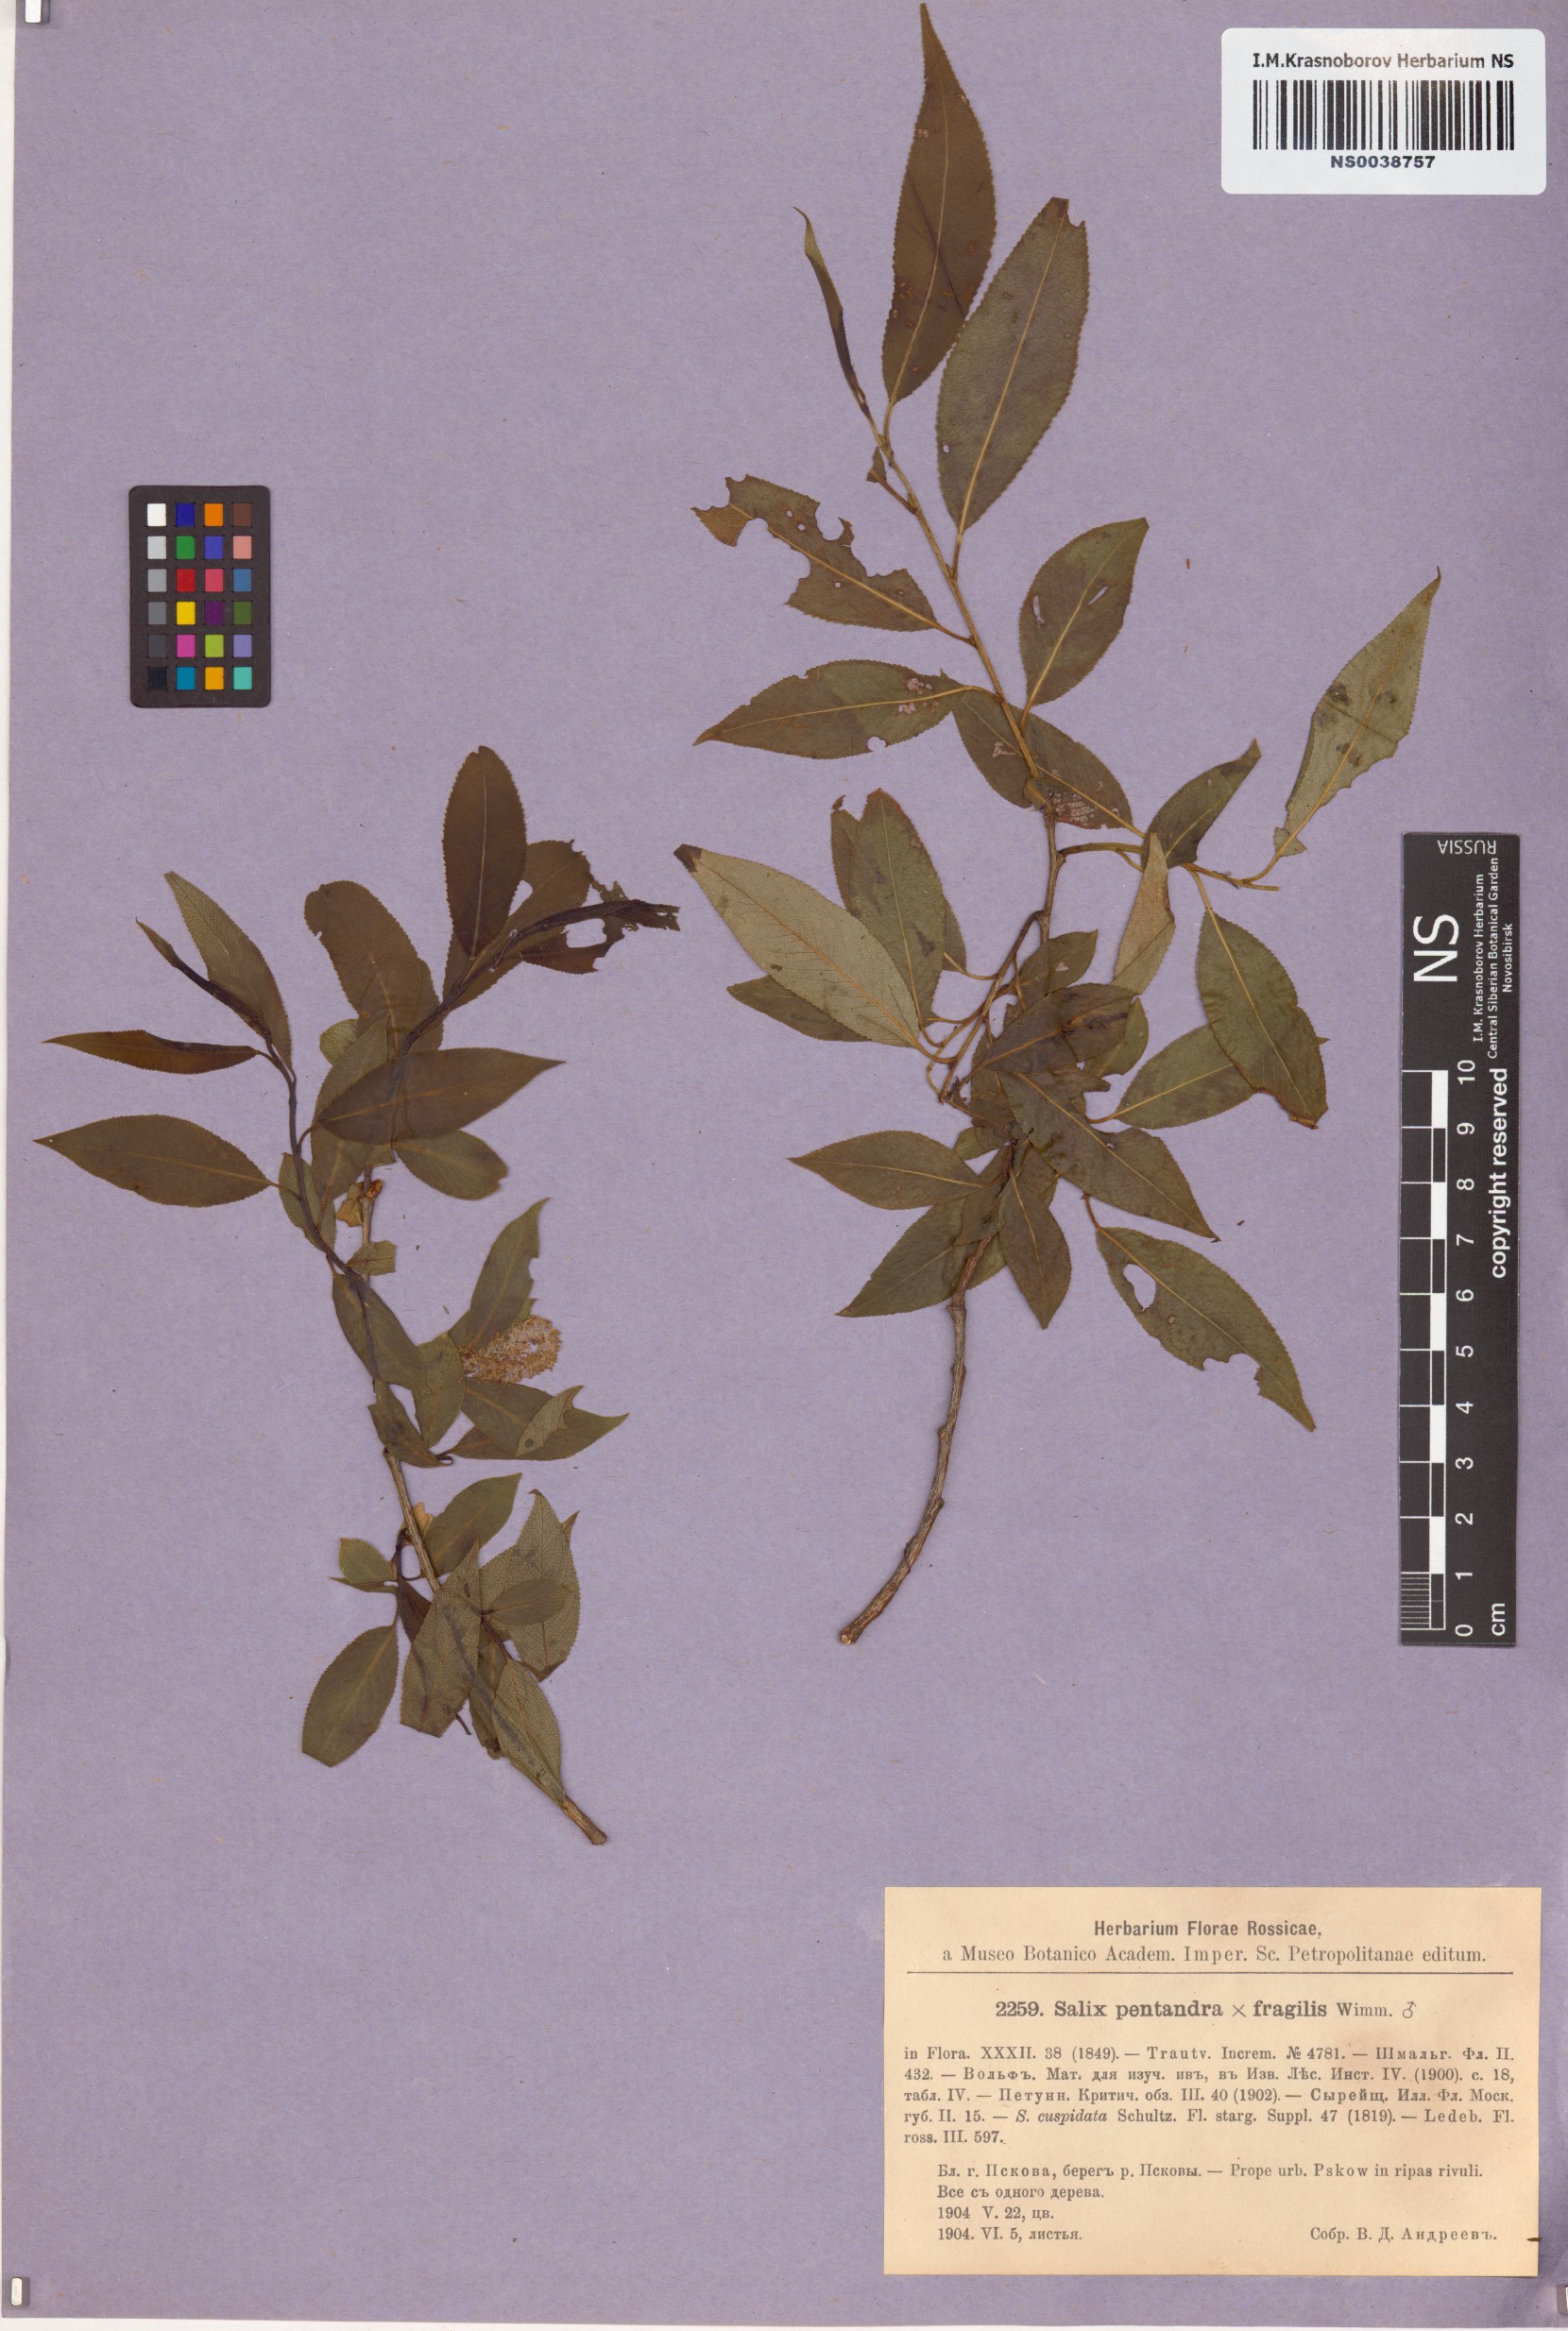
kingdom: Plantae
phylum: Tracheophyta
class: Magnoliopsida
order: Malpighiales
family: Salicaceae
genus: Salix
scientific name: Salix pentandra
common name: Bay willow
